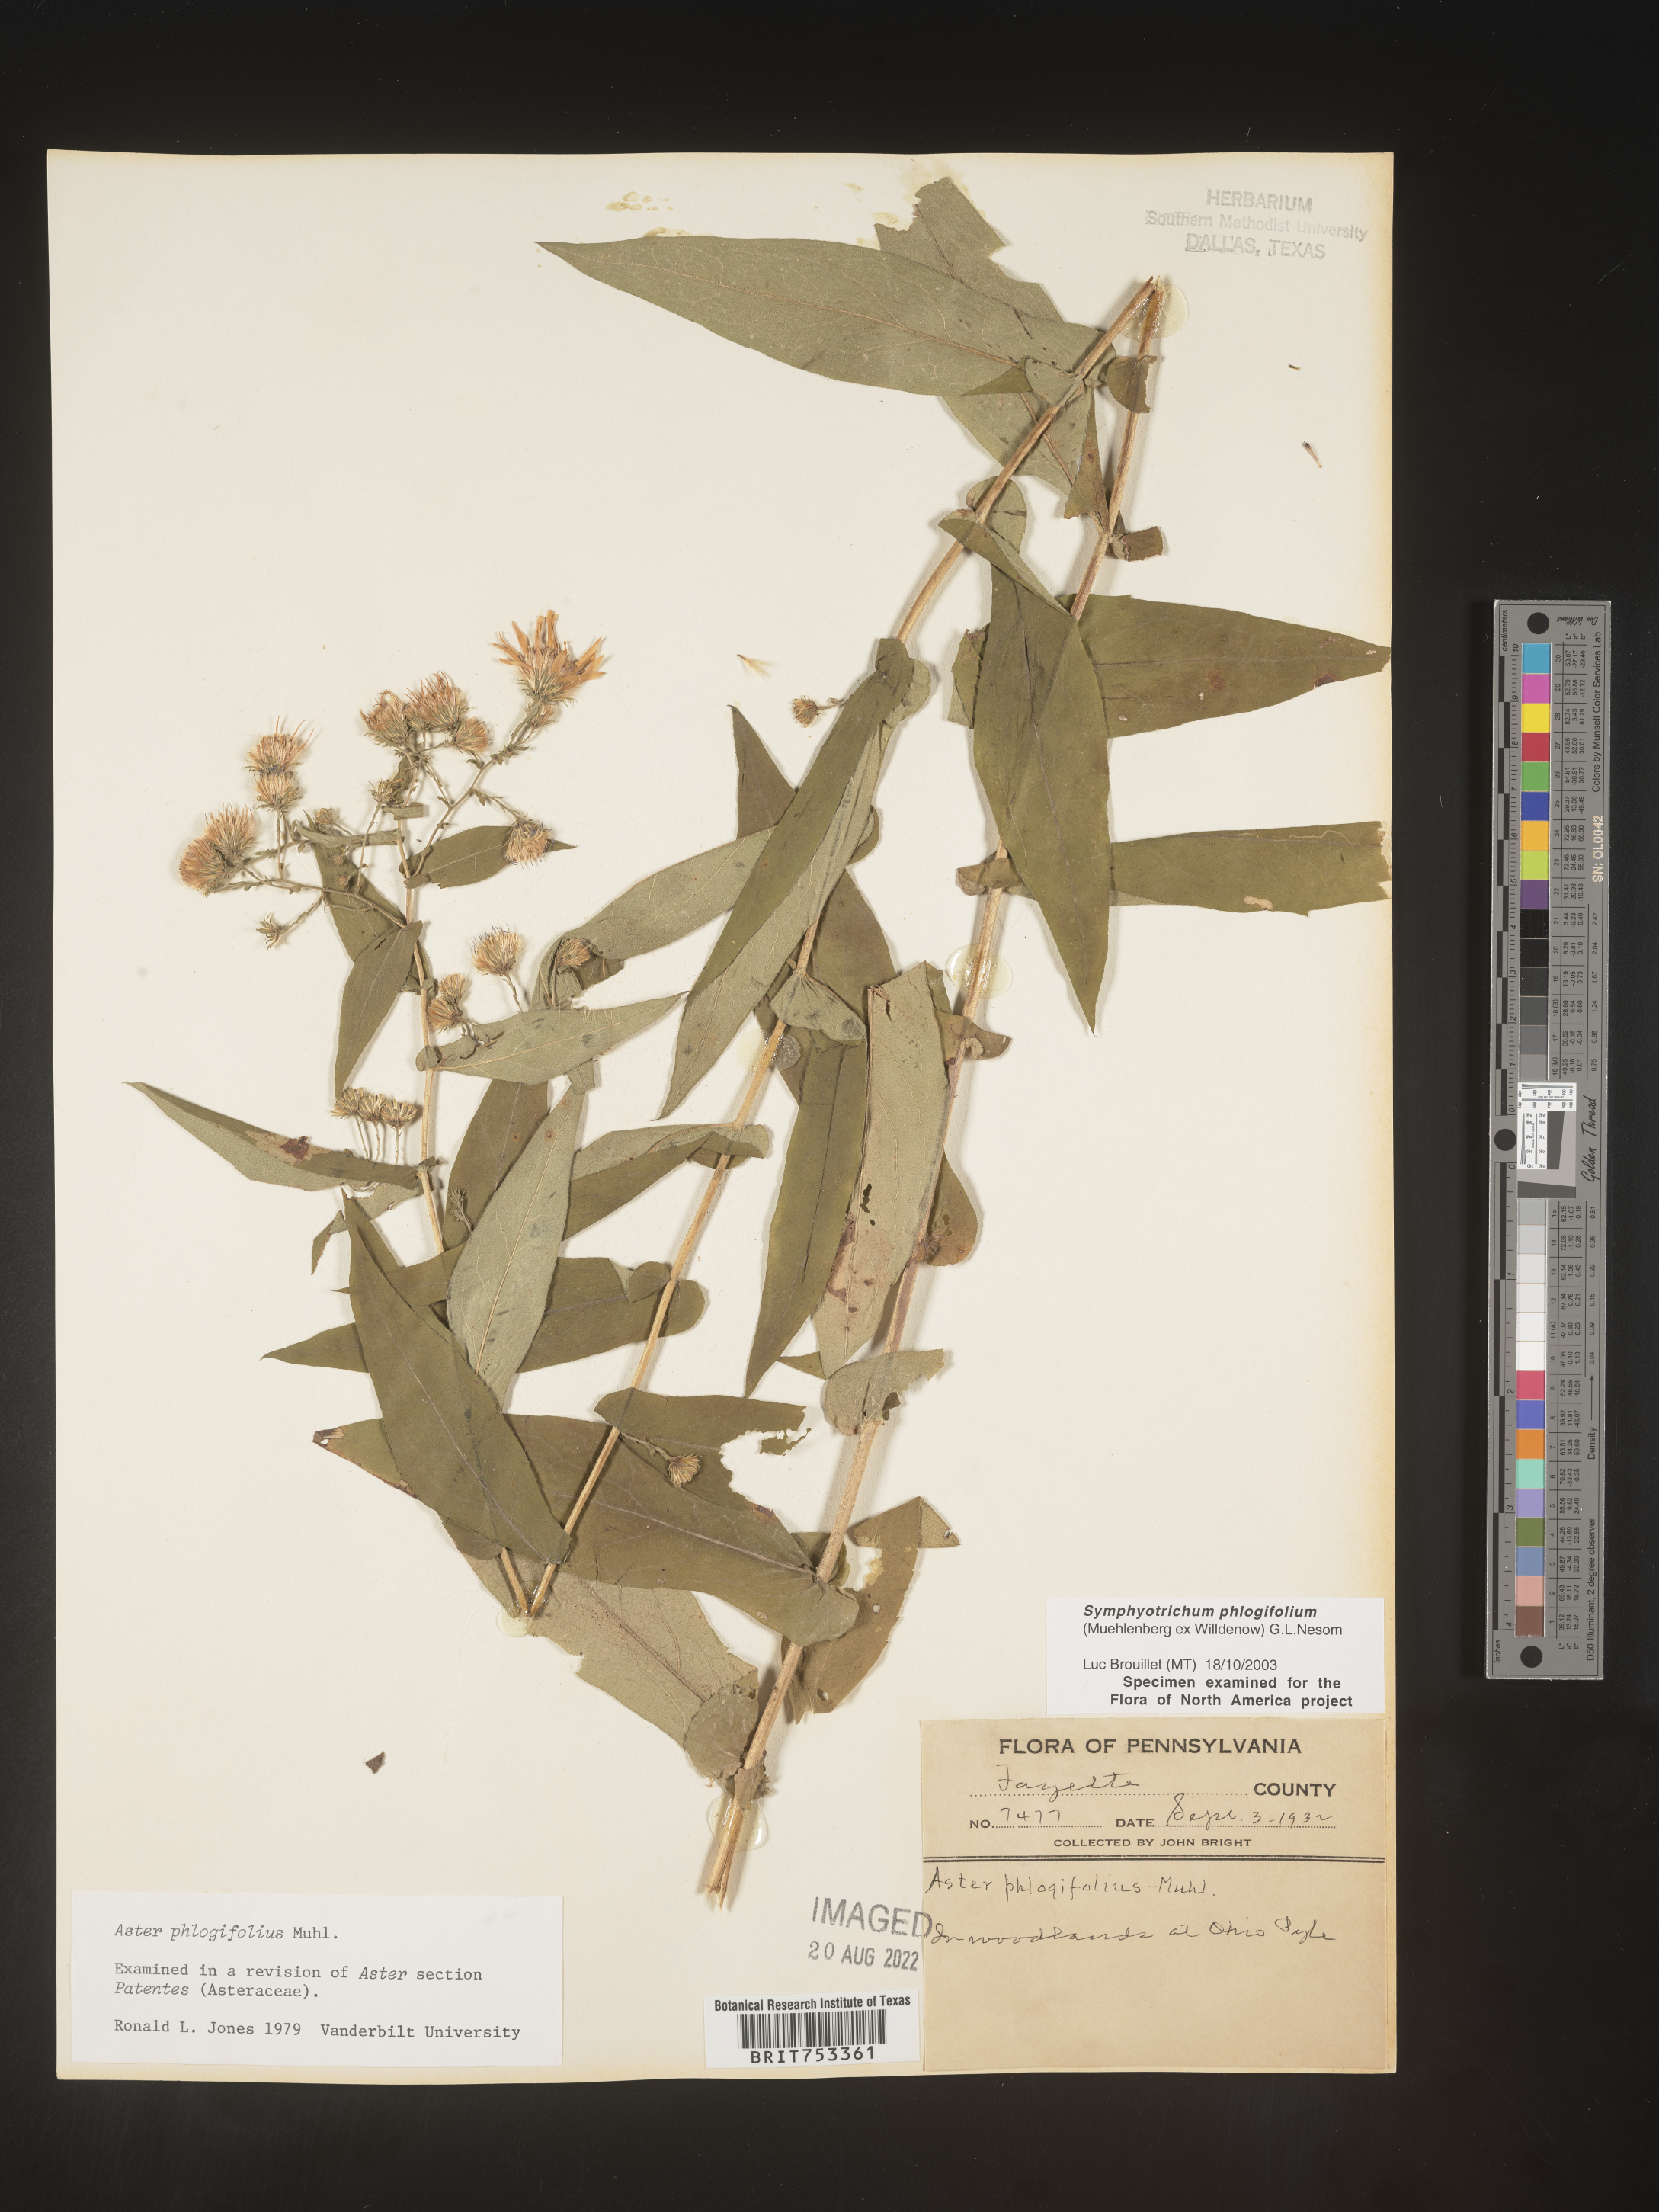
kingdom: Plantae
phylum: Tracheophyta
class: Magnoliopsida
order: Asterales
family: Asteraceae
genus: Symphyotrichum
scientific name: Symphyotrichum phlogifolium
